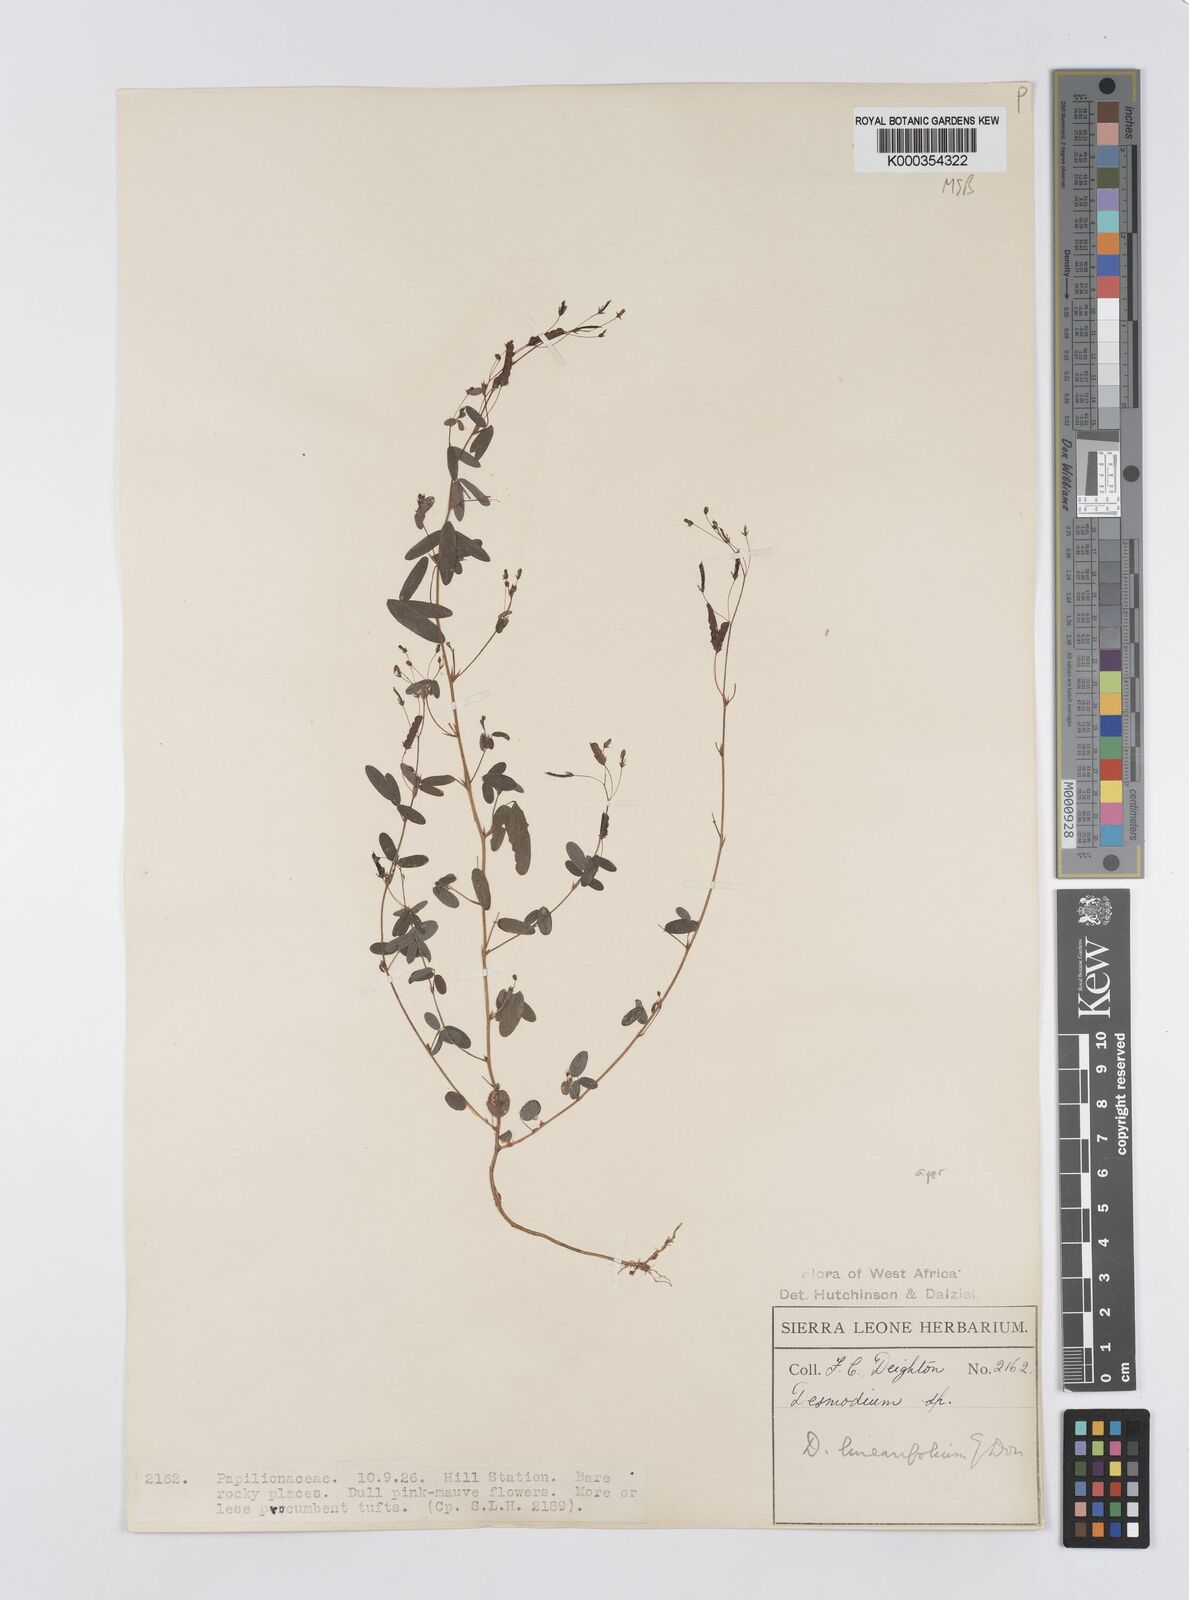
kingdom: Plantae
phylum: Tracheophyta
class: Magnoliopsida
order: Fabales
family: Fabaceae
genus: Desmodium
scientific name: Desmodium linearifolium
